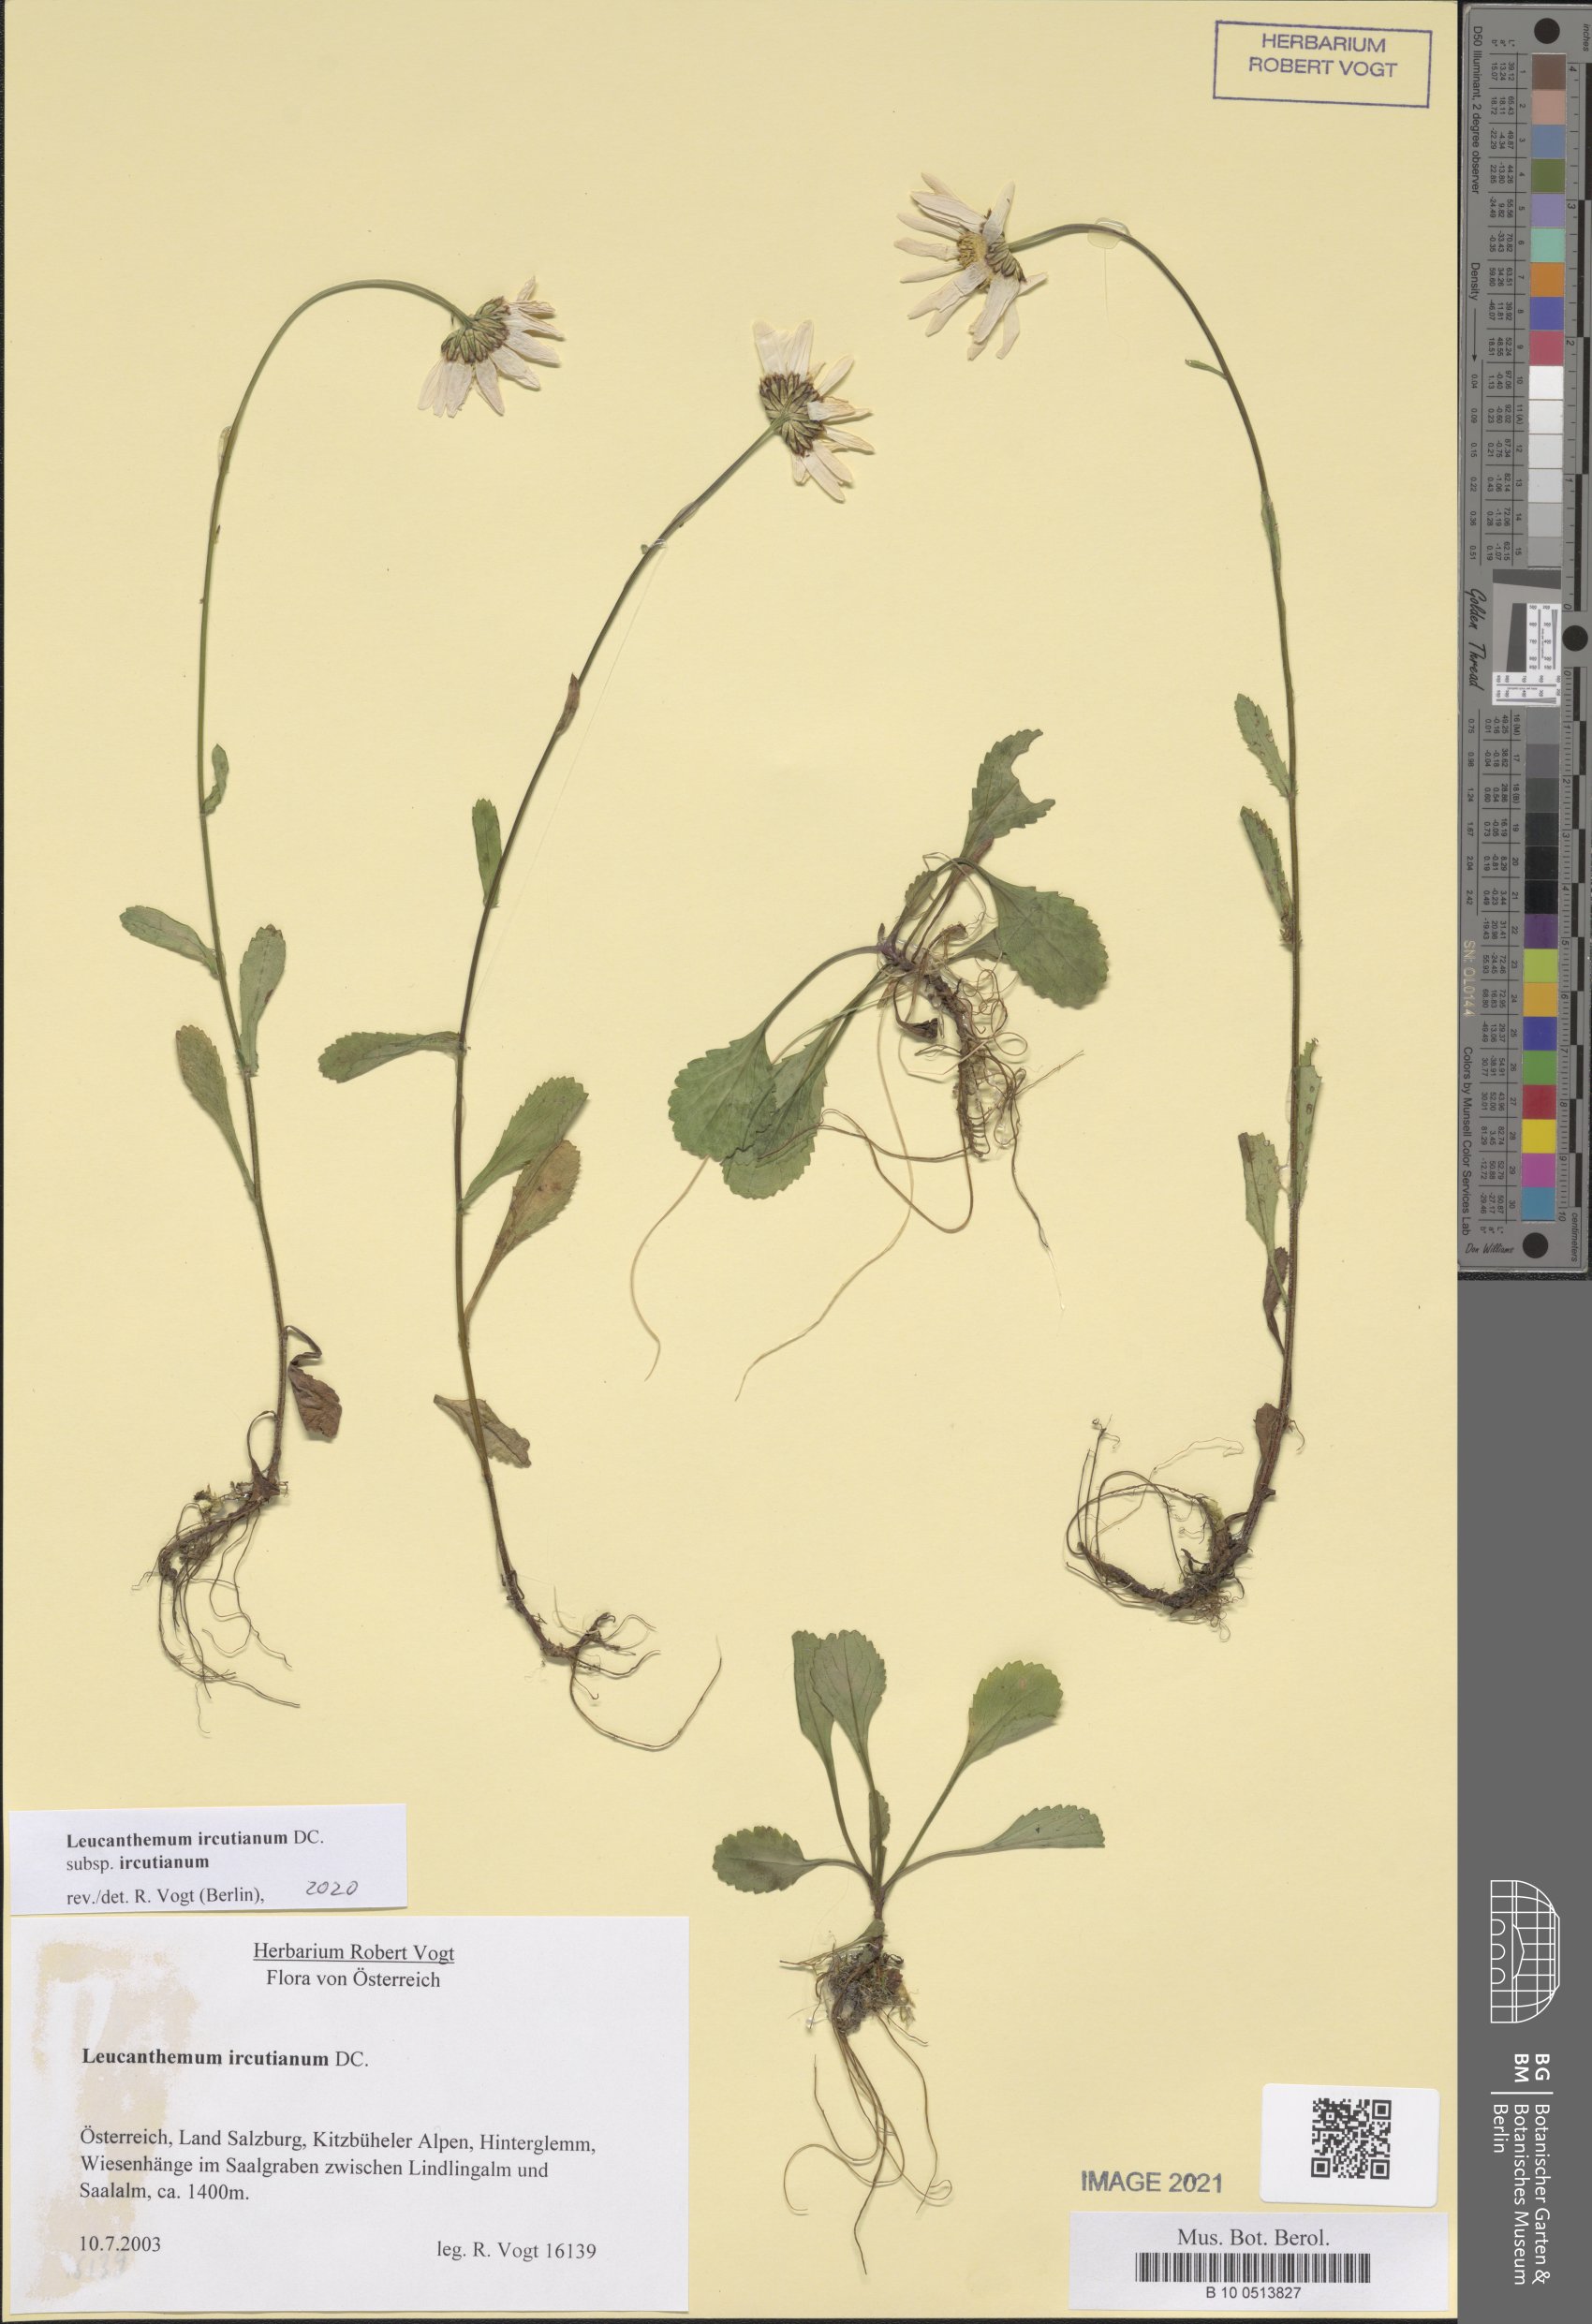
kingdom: Plantae
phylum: Tracheophyta
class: Magnoliopsida
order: Asterales
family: Asteraceae
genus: Leucanthemum
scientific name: Leucanthemum ircutianum
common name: Daisy
